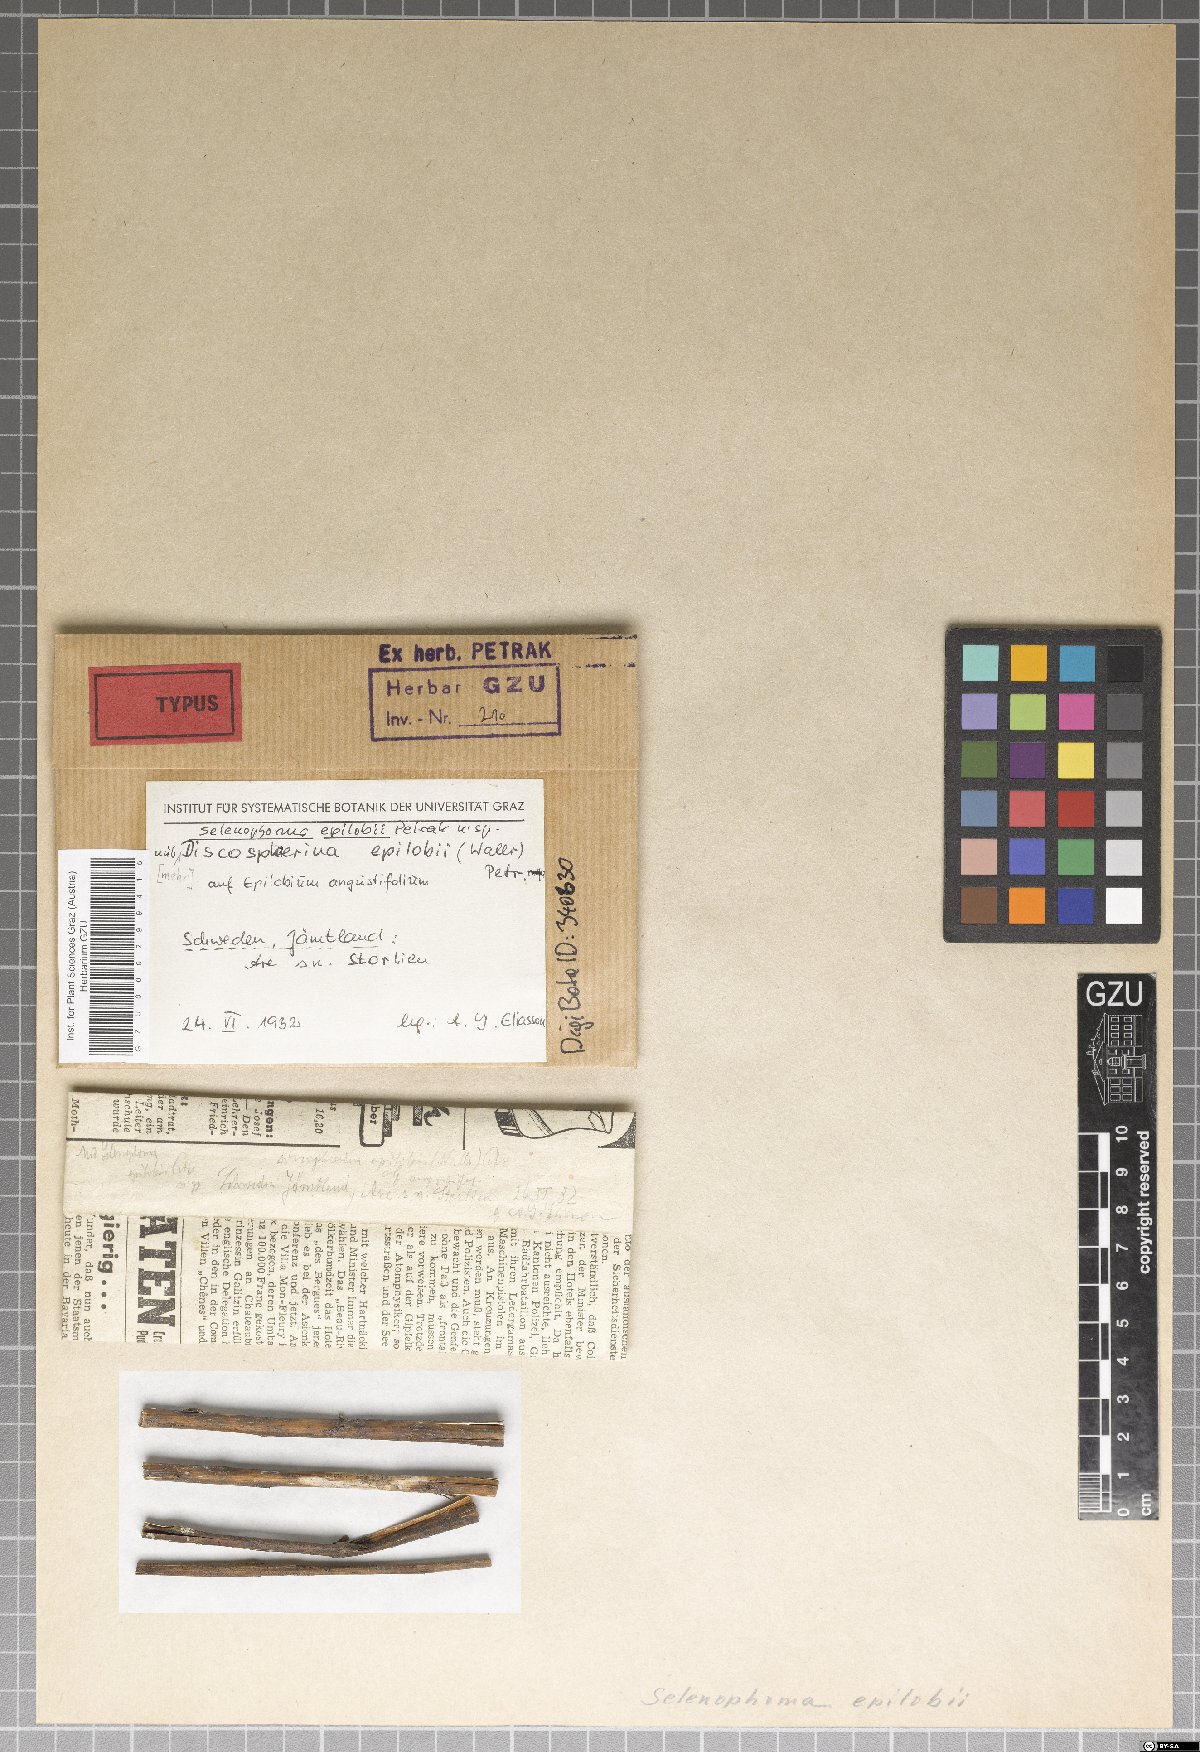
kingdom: Fungi
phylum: Ascomycota
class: Dothideomycetes
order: Dothideales
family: Saccotheciaceae
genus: Selenophoma
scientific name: Selenophoma epilobii
